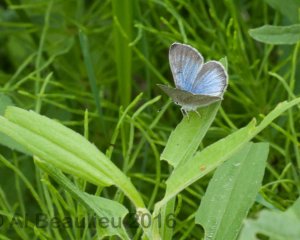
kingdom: Animalia
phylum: Arthropoda
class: Insecta
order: Lepidoptera
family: Lycaenidae
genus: Glaucopsyche
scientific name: Glaucopsyche lygdamus
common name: Silvery Blue
